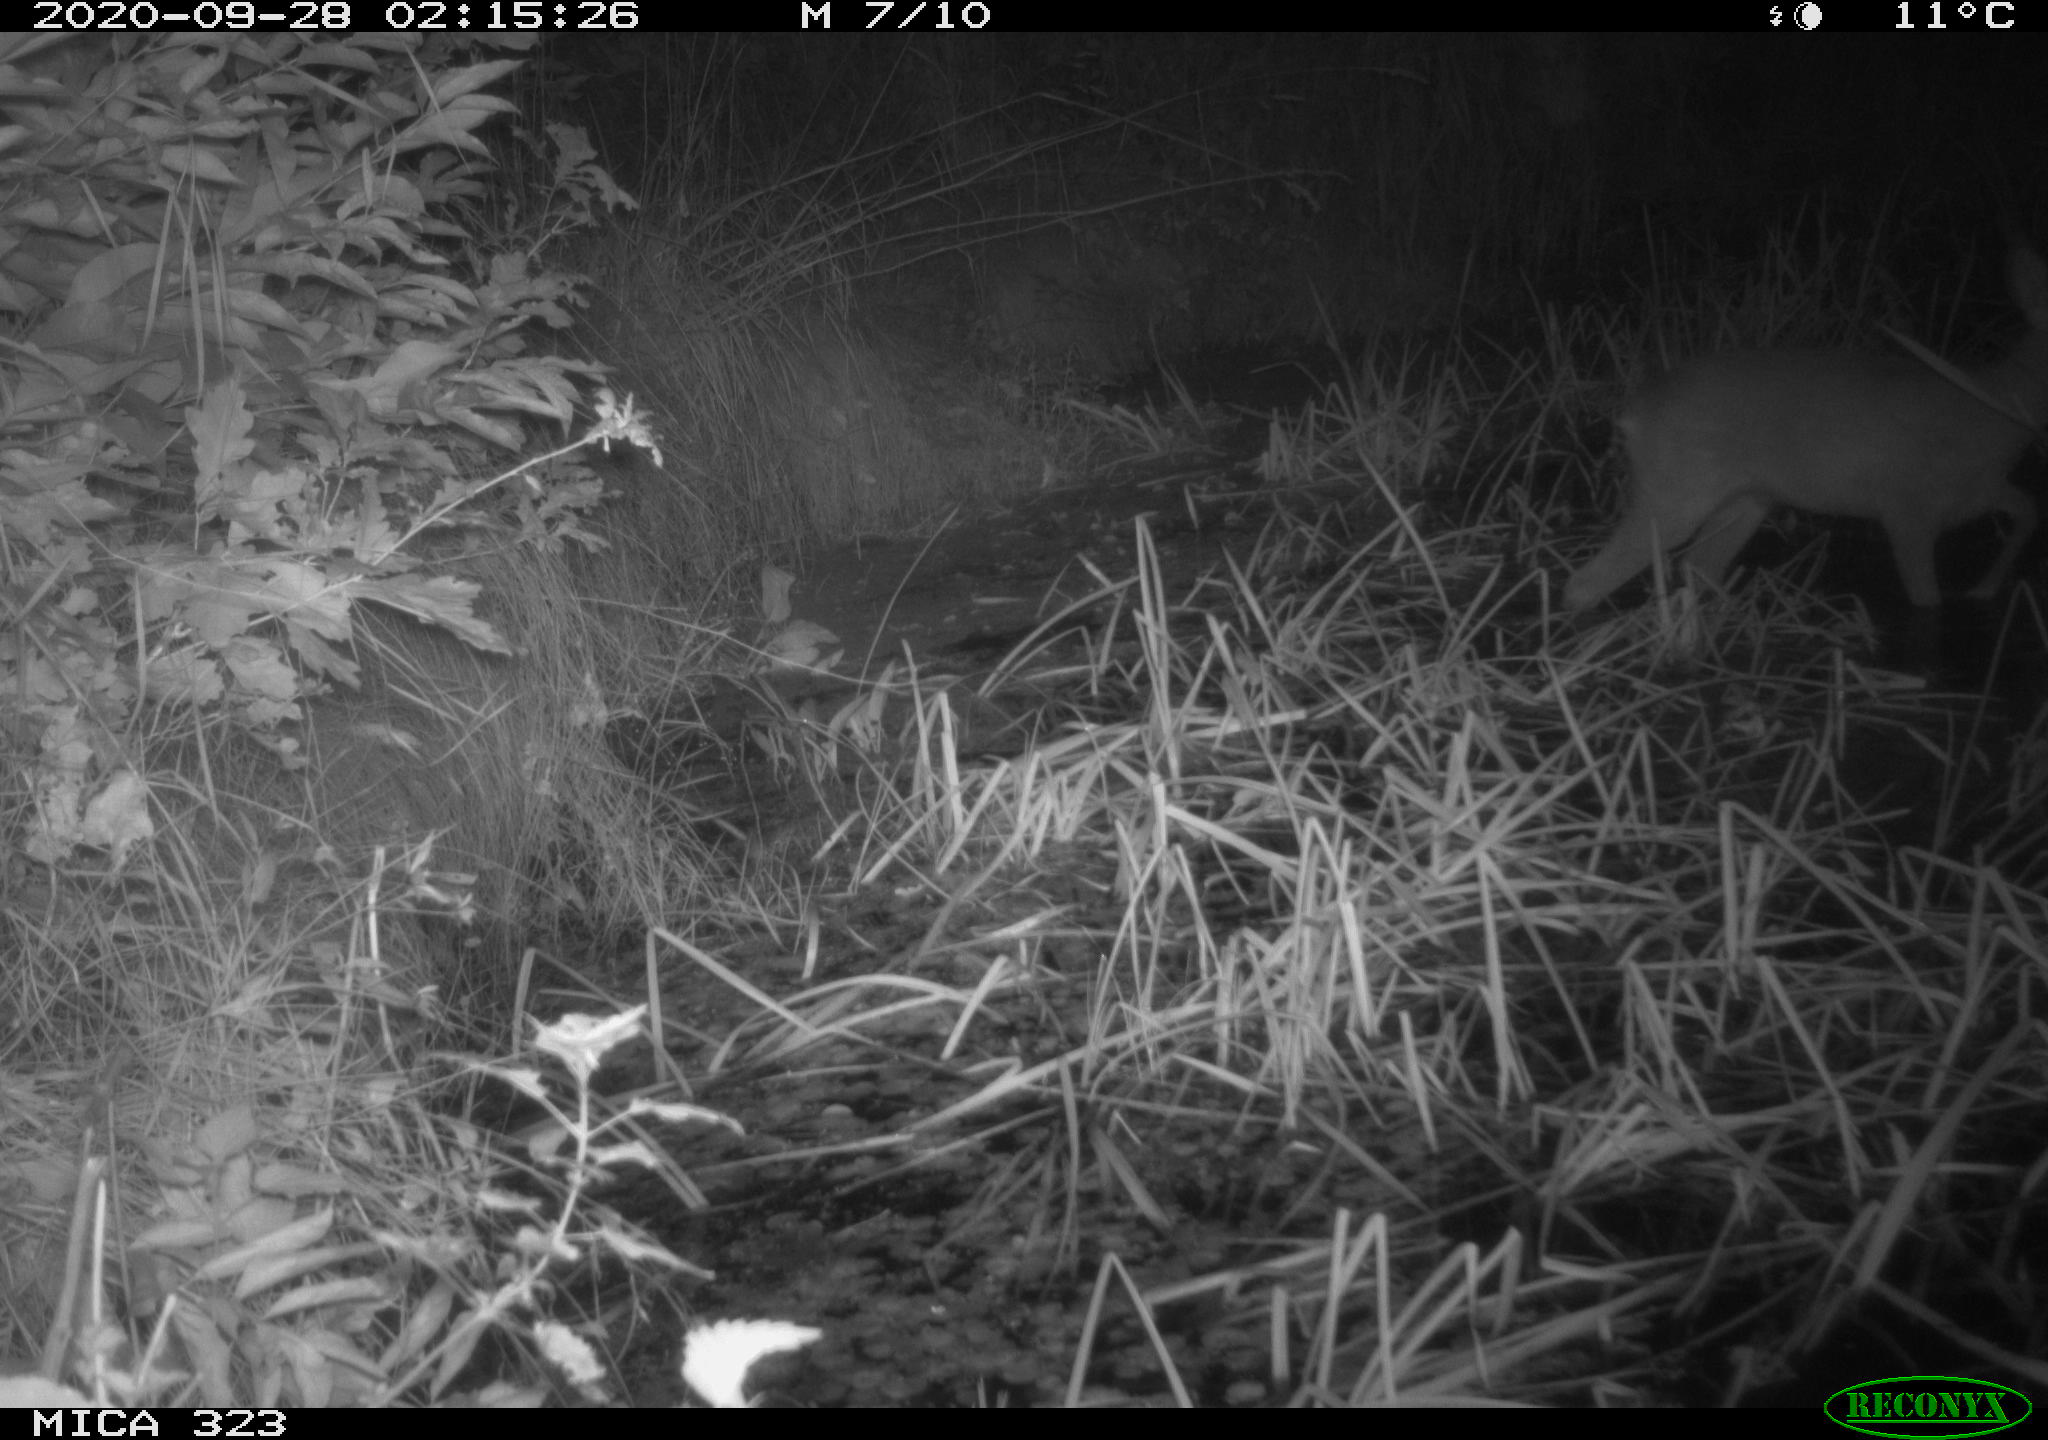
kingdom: Animalia
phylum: Chordata
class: Mammalia
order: Artiodactyla
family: Cervidae
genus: Capreolus
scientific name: Capreolus capreolus
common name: Western roe deer
